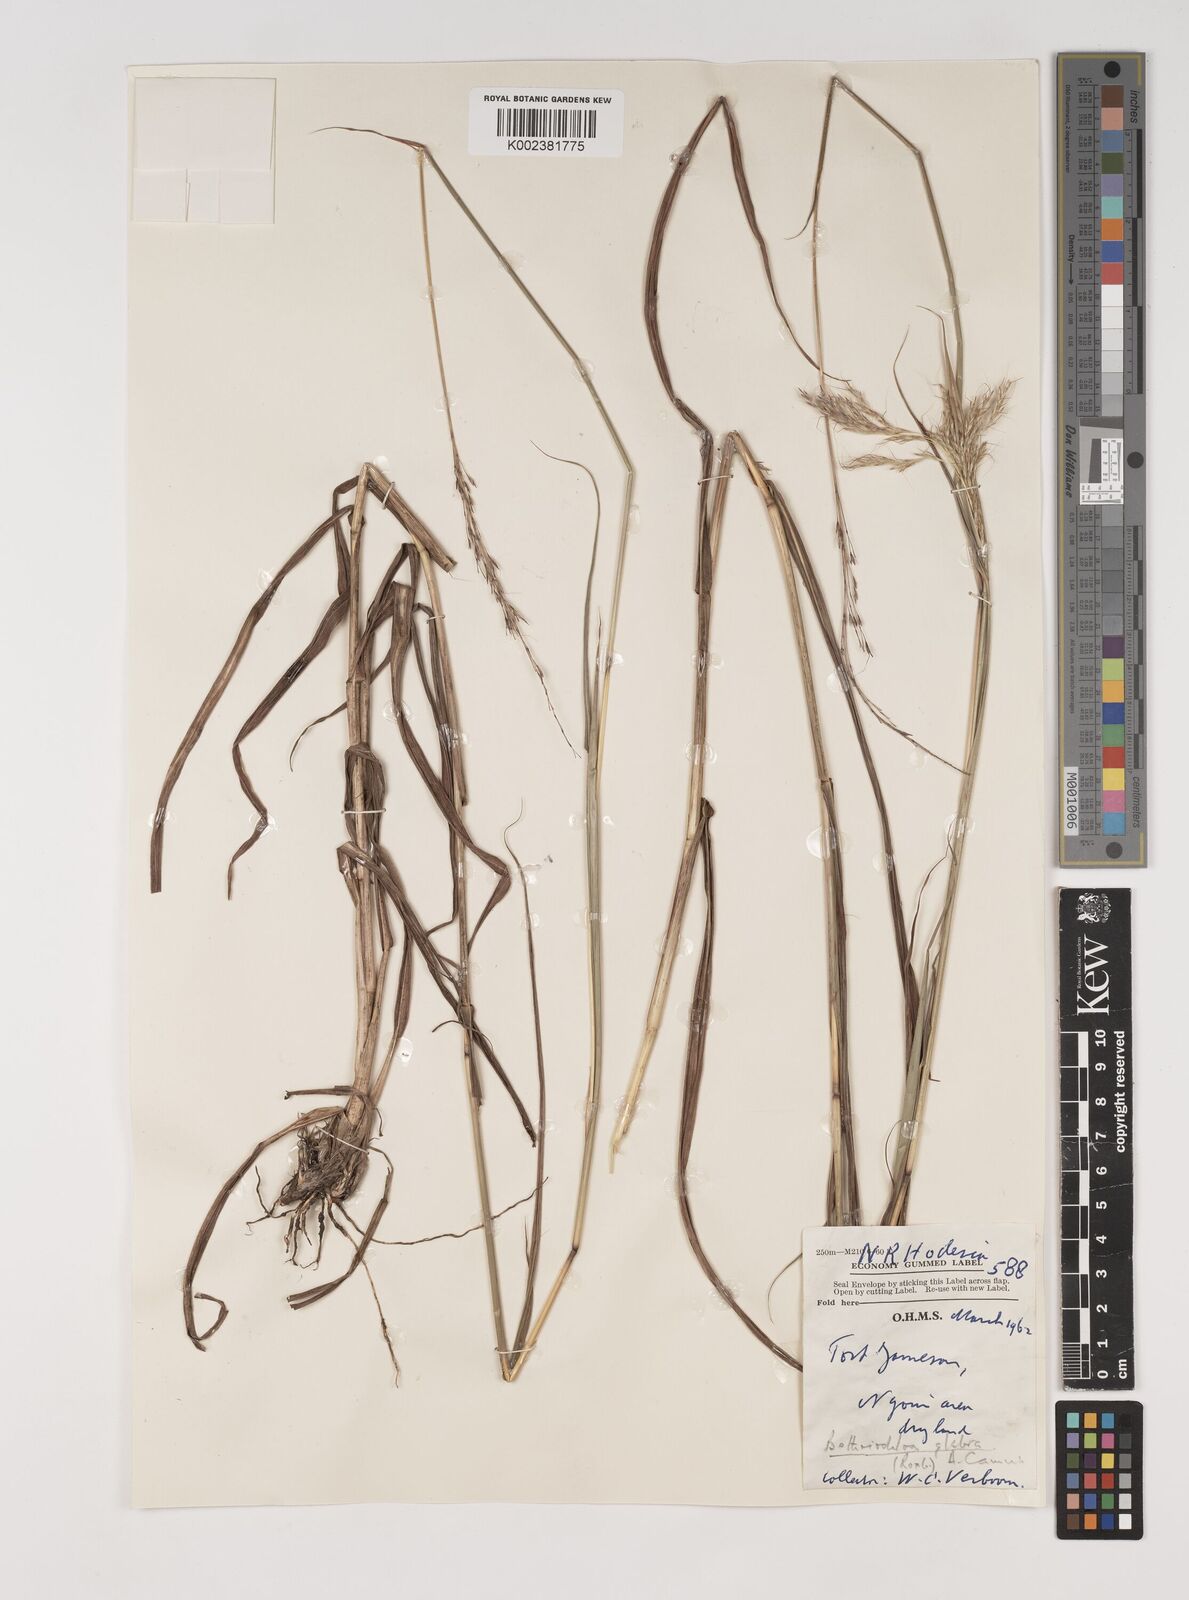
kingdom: Plantae
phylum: Tracheophyta
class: Liliopsida
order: Poales
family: Poaceae
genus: Bothriochloa
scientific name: Bothriochloa bladhii
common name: Caucasian bluestem
